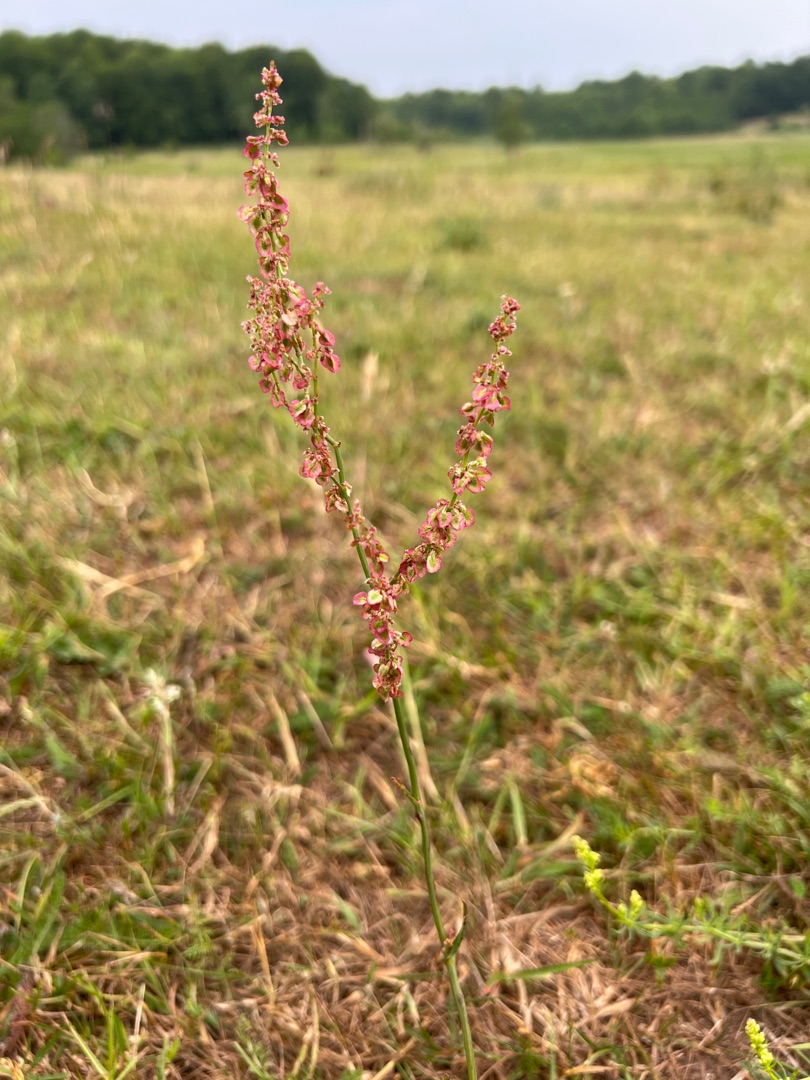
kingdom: Plantae
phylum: Tracheophyta
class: Magnoliopsida
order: Caryophyllales
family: Polygonaceae
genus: Rumex
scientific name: Rumex acetosa
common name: Almindelig syre
